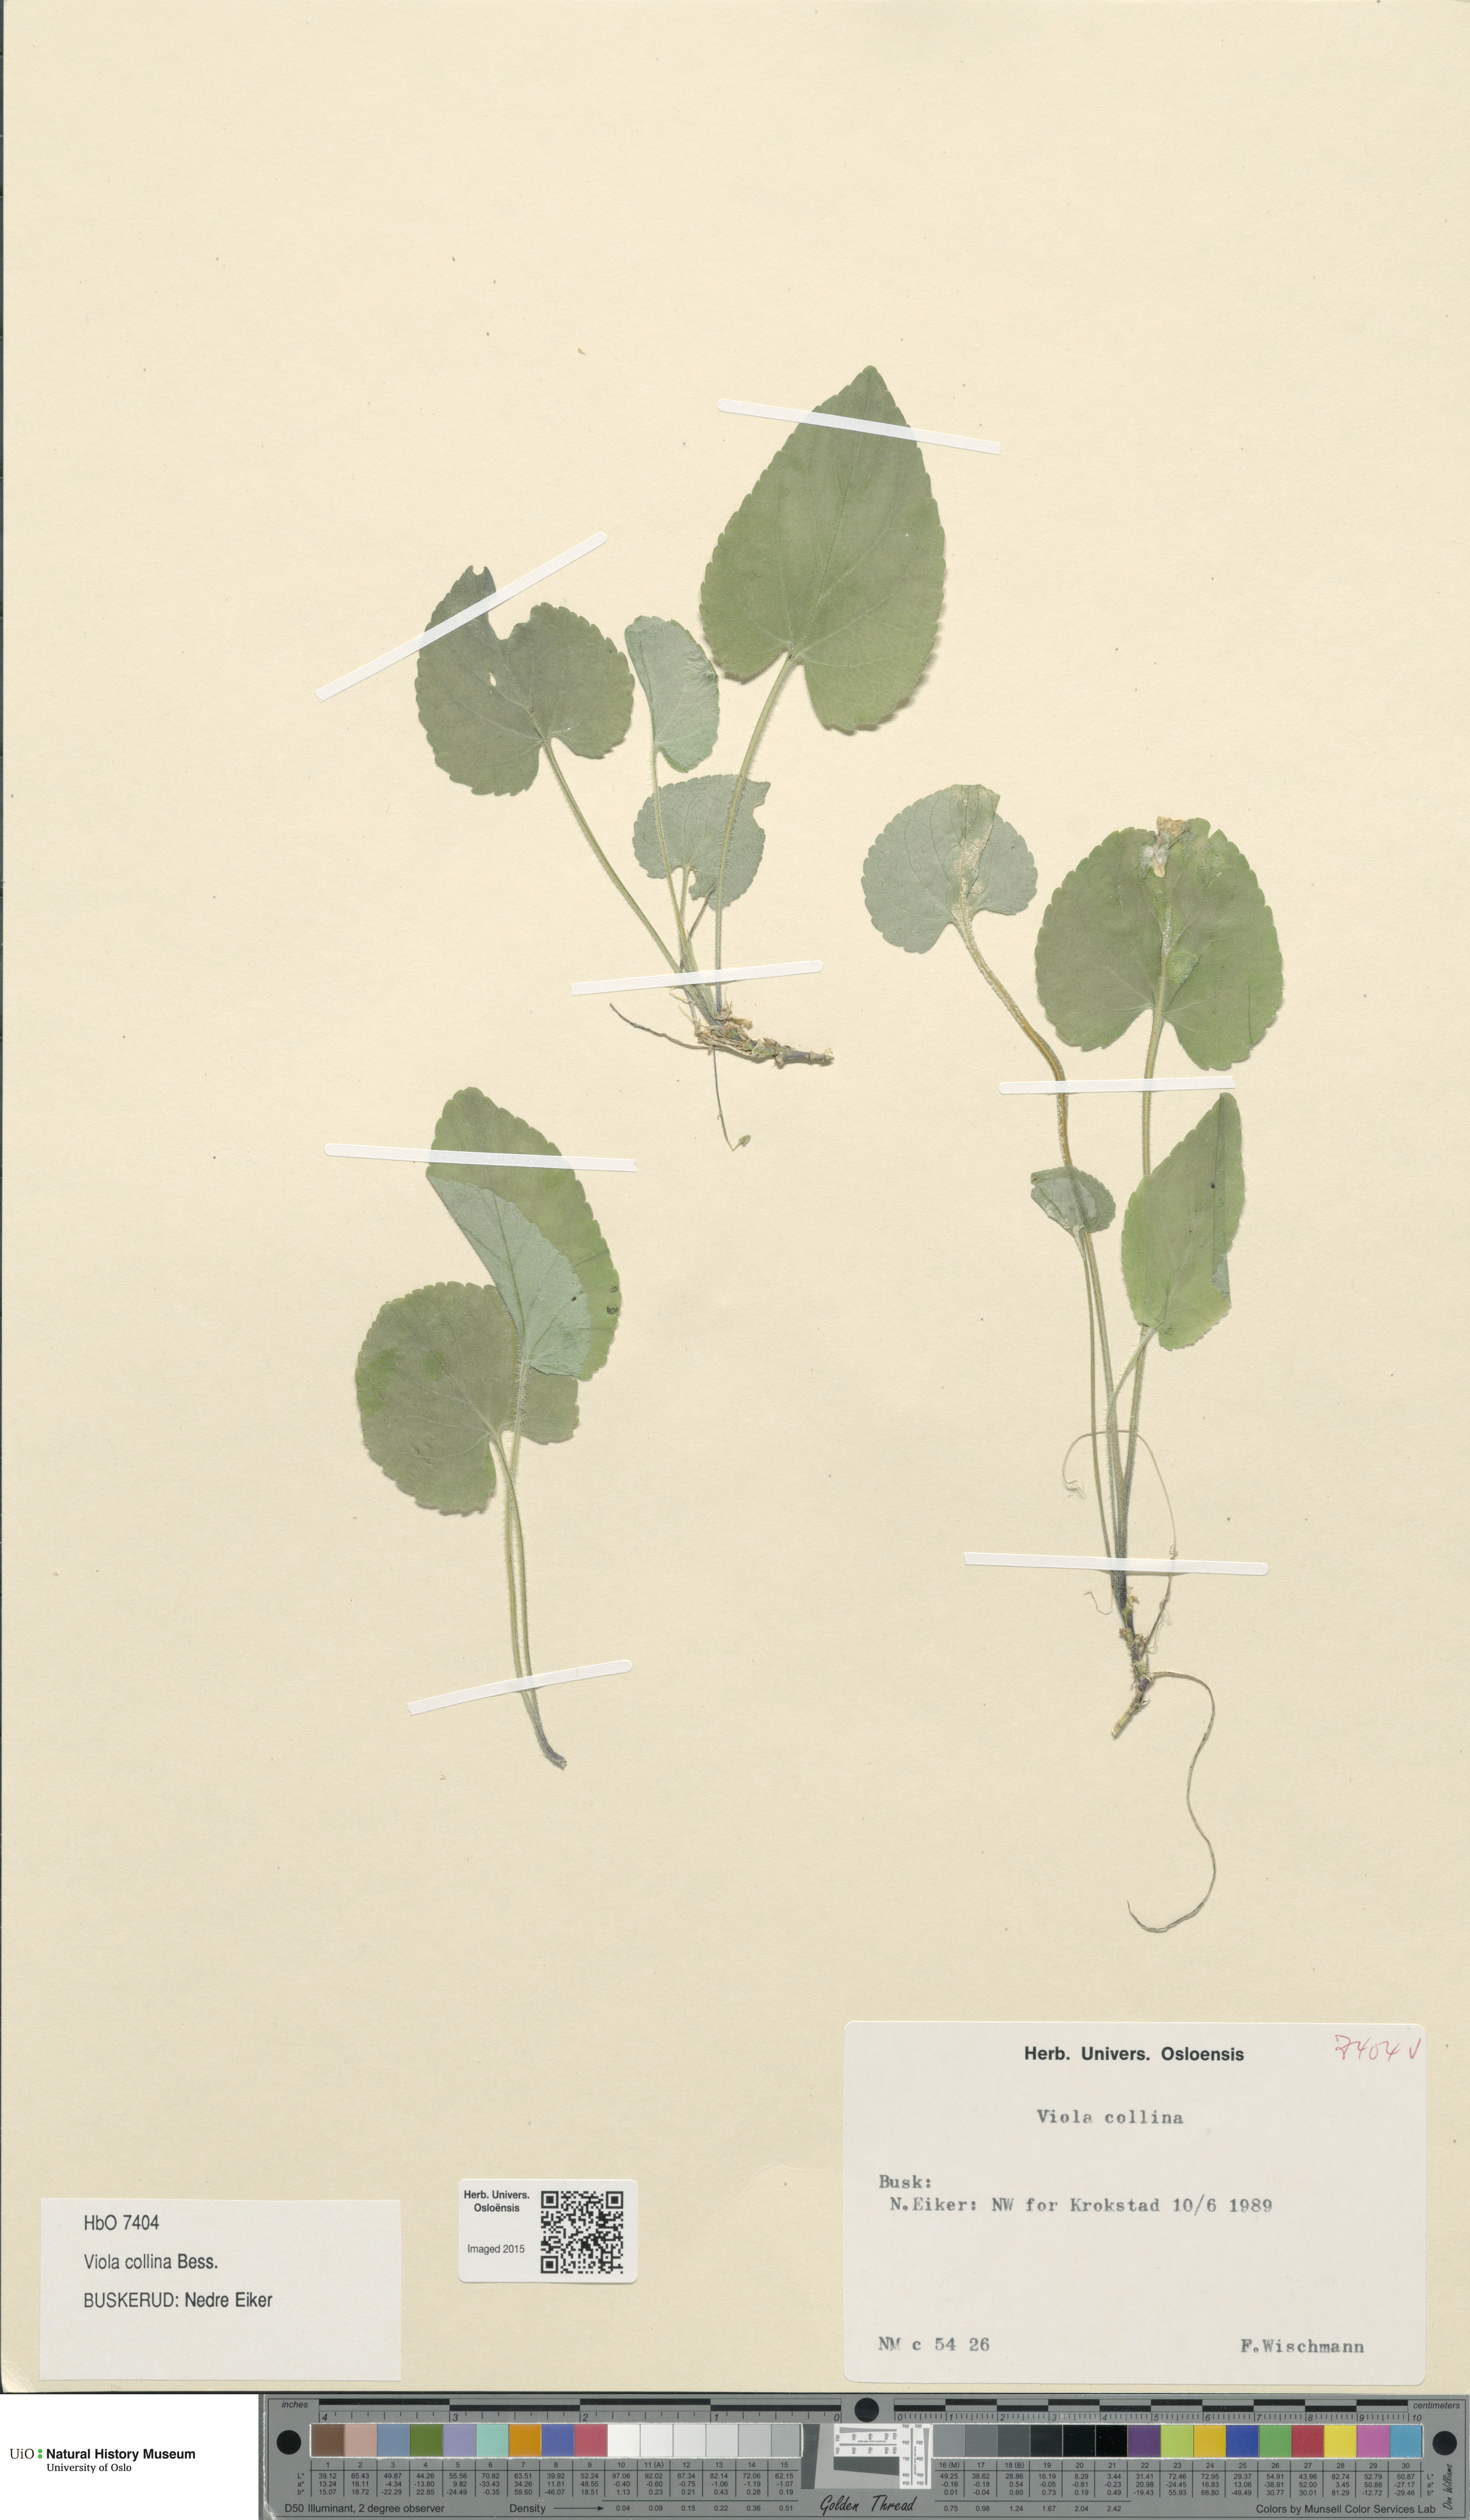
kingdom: Plantae
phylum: Tracheophyta
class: Magnoliopsida
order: Malpighiales
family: Violaceae
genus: Viola
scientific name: Viola collina
